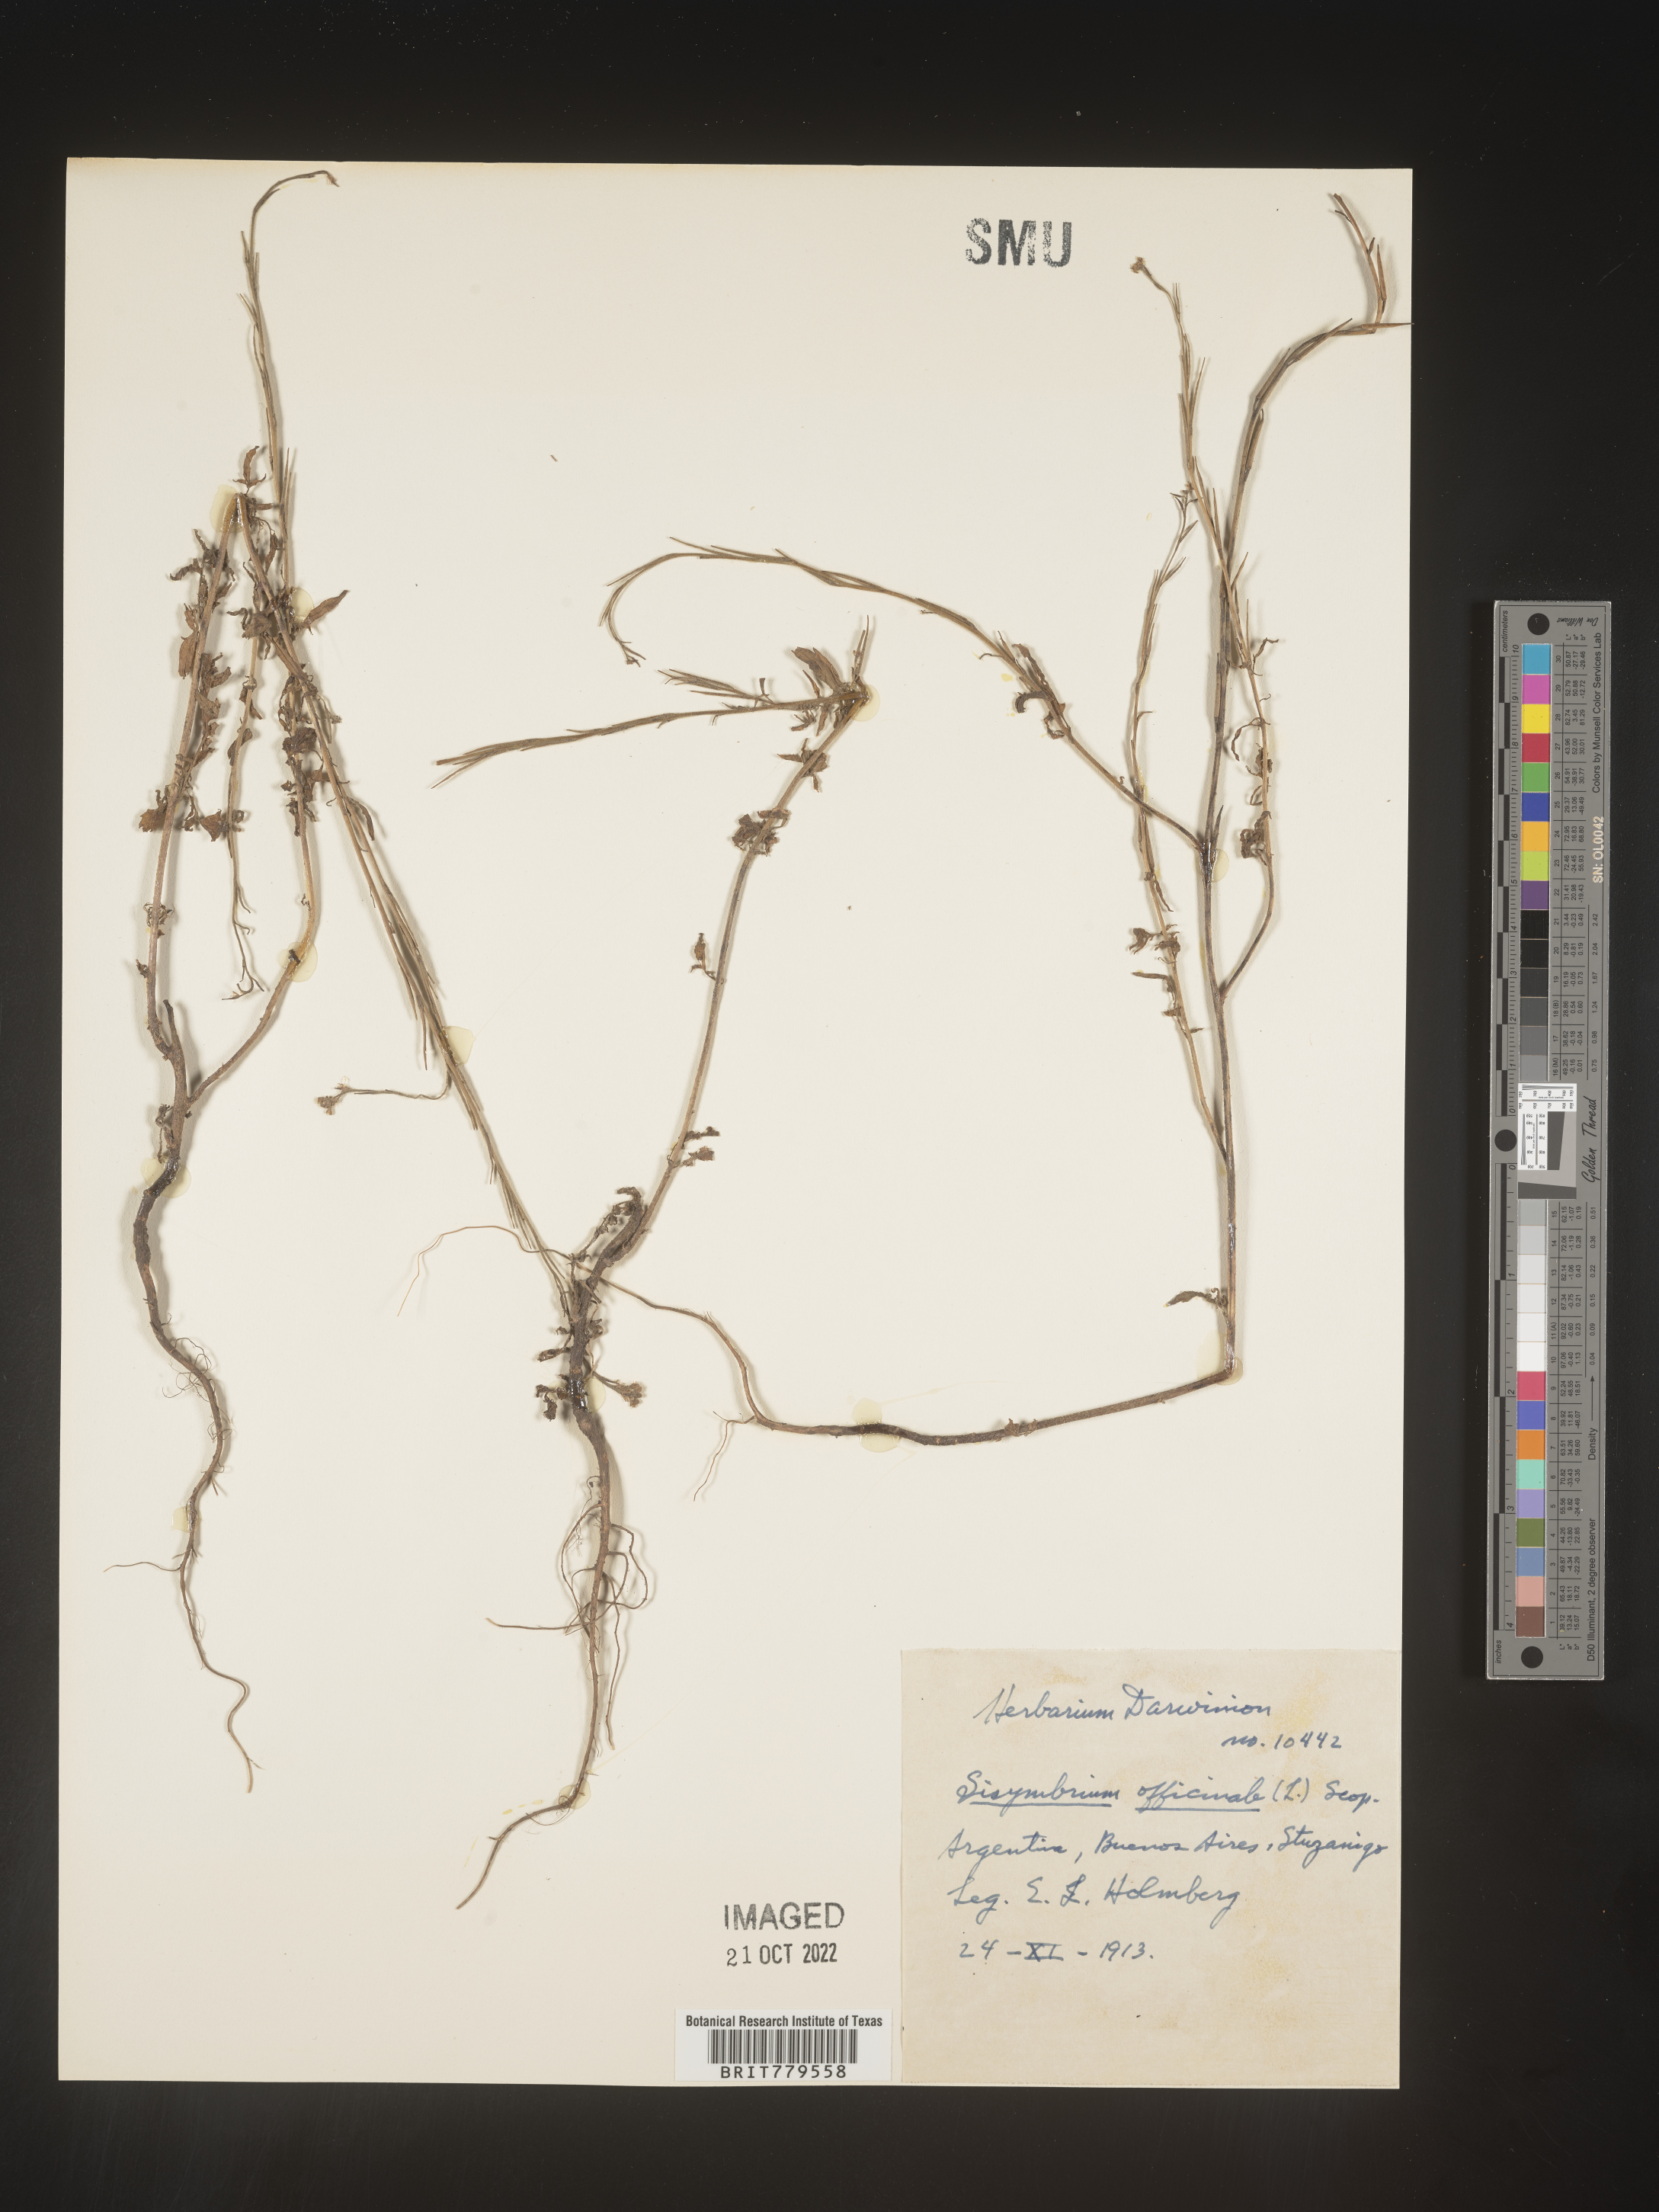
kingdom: Plantae
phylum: Tracheophyta
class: Magnoliopsida
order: Brassicales
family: Brassicaceae
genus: Sisymbrium
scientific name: Sisymbrium
